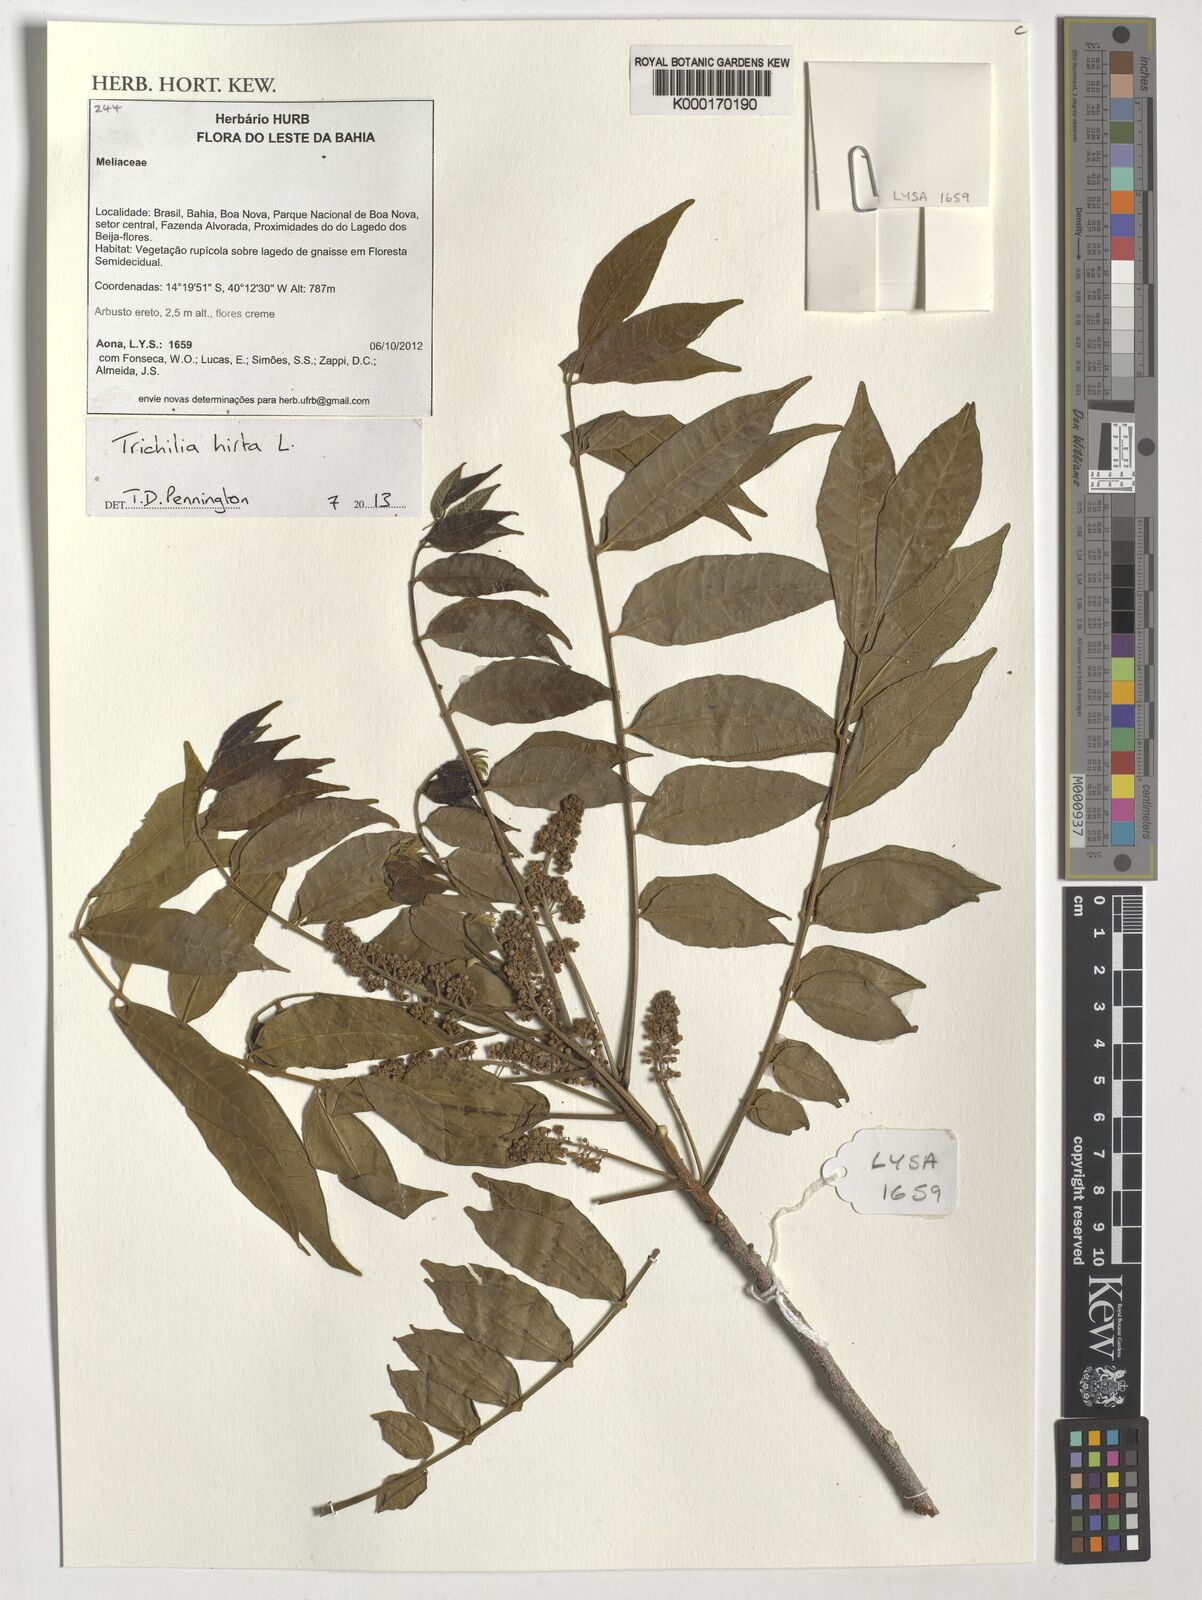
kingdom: Plantae
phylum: Tracheophyta
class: Magnoliopsida
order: Sapindales
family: Meliaceae
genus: Trichilia
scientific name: Trichilia hirta
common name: Red-cedar
